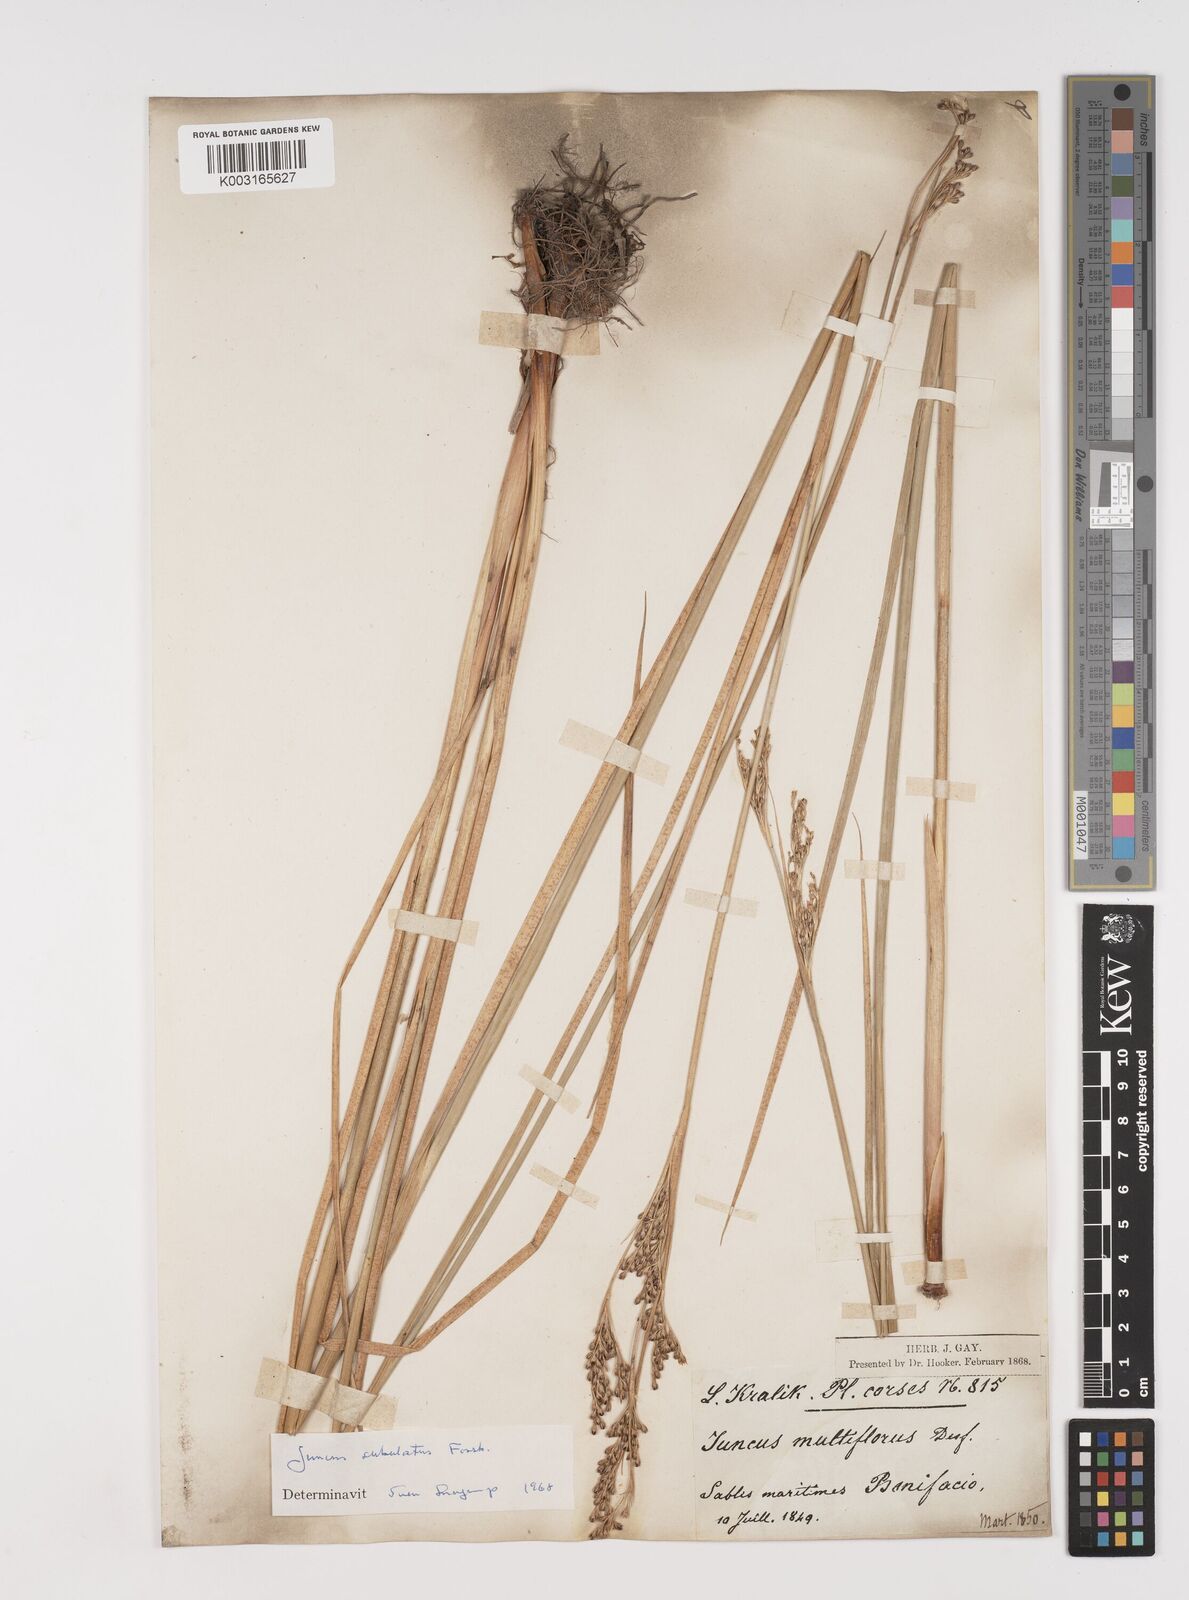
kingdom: Plantae
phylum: Tracheophyta
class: Liliopsida
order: Poales
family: Juncaceae
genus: Juncus
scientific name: Juncus subulatus
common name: Somerset rush
